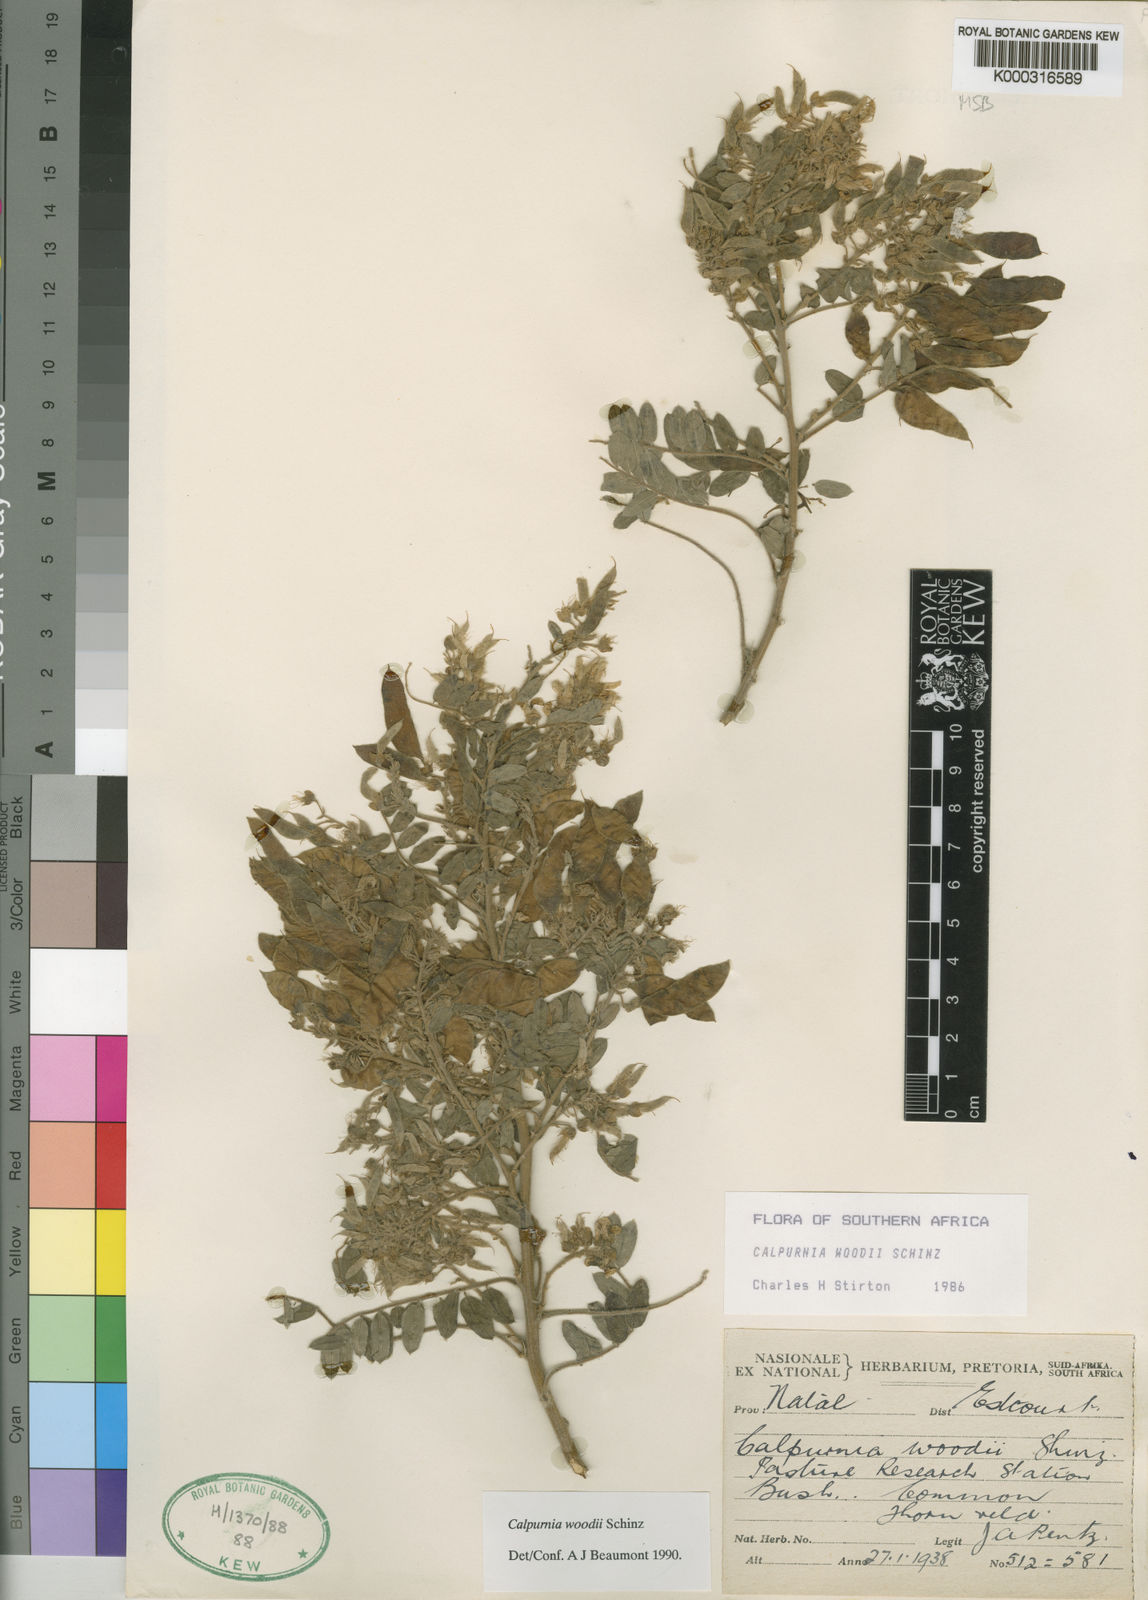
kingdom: Plantae
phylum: Tracheophyta
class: Magnoliopsida
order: Fabales
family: Fabaceae
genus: Calpurnia
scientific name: Calpurnia woodii
